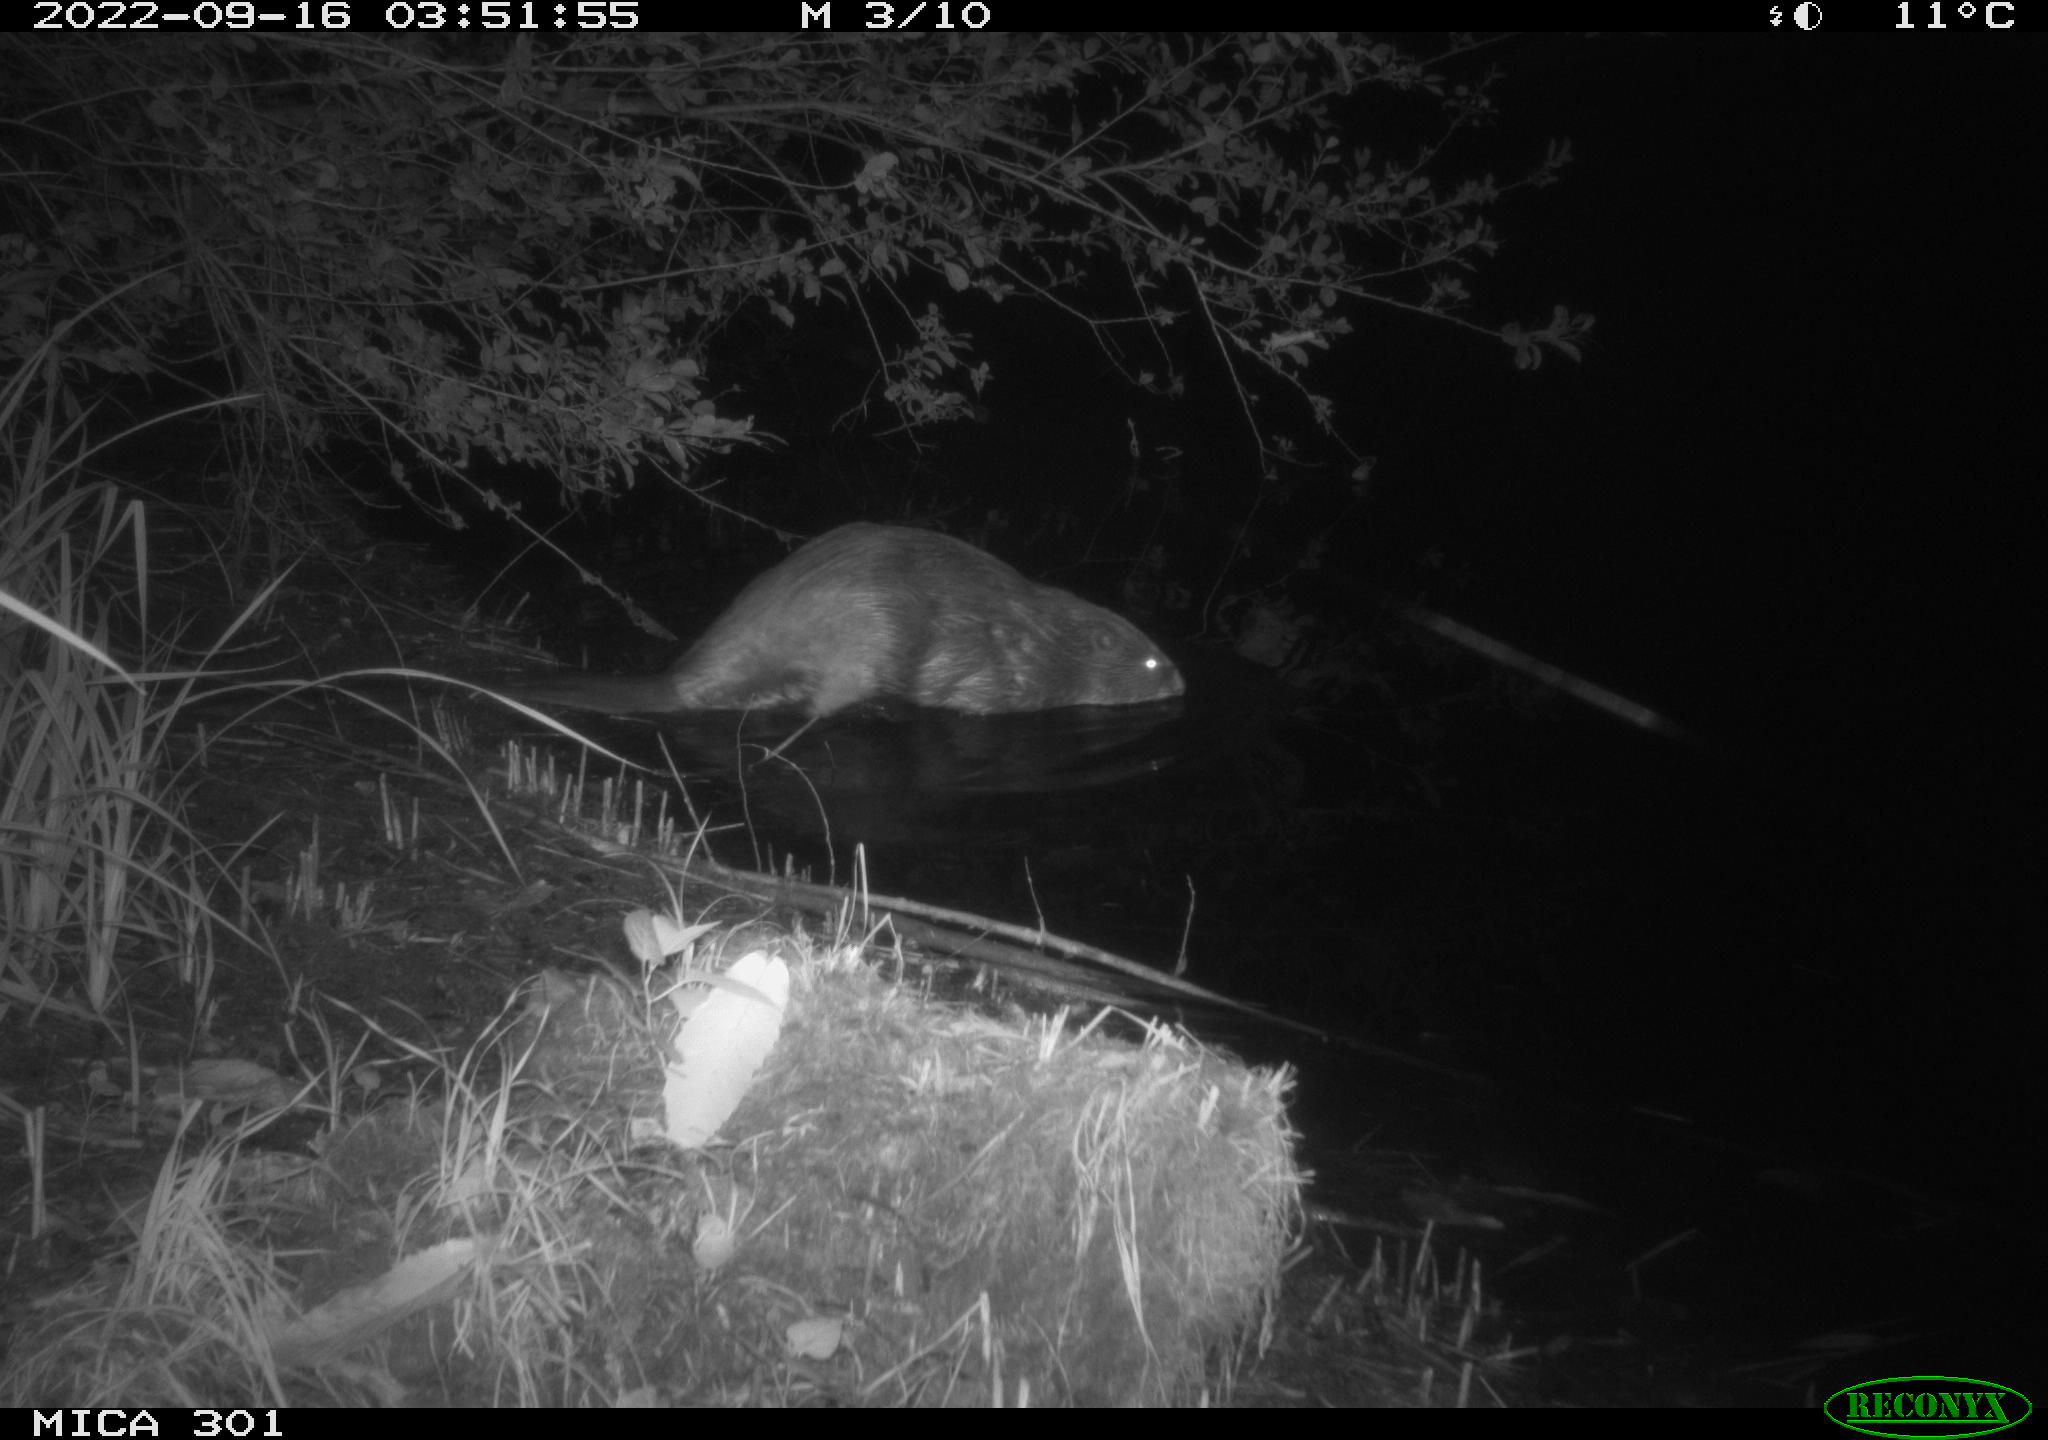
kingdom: Animalia
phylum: Chordata
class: Mammalia
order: Rodentia
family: Castoridae
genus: Castor
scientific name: Castor fiber
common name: Eurasian beaver
